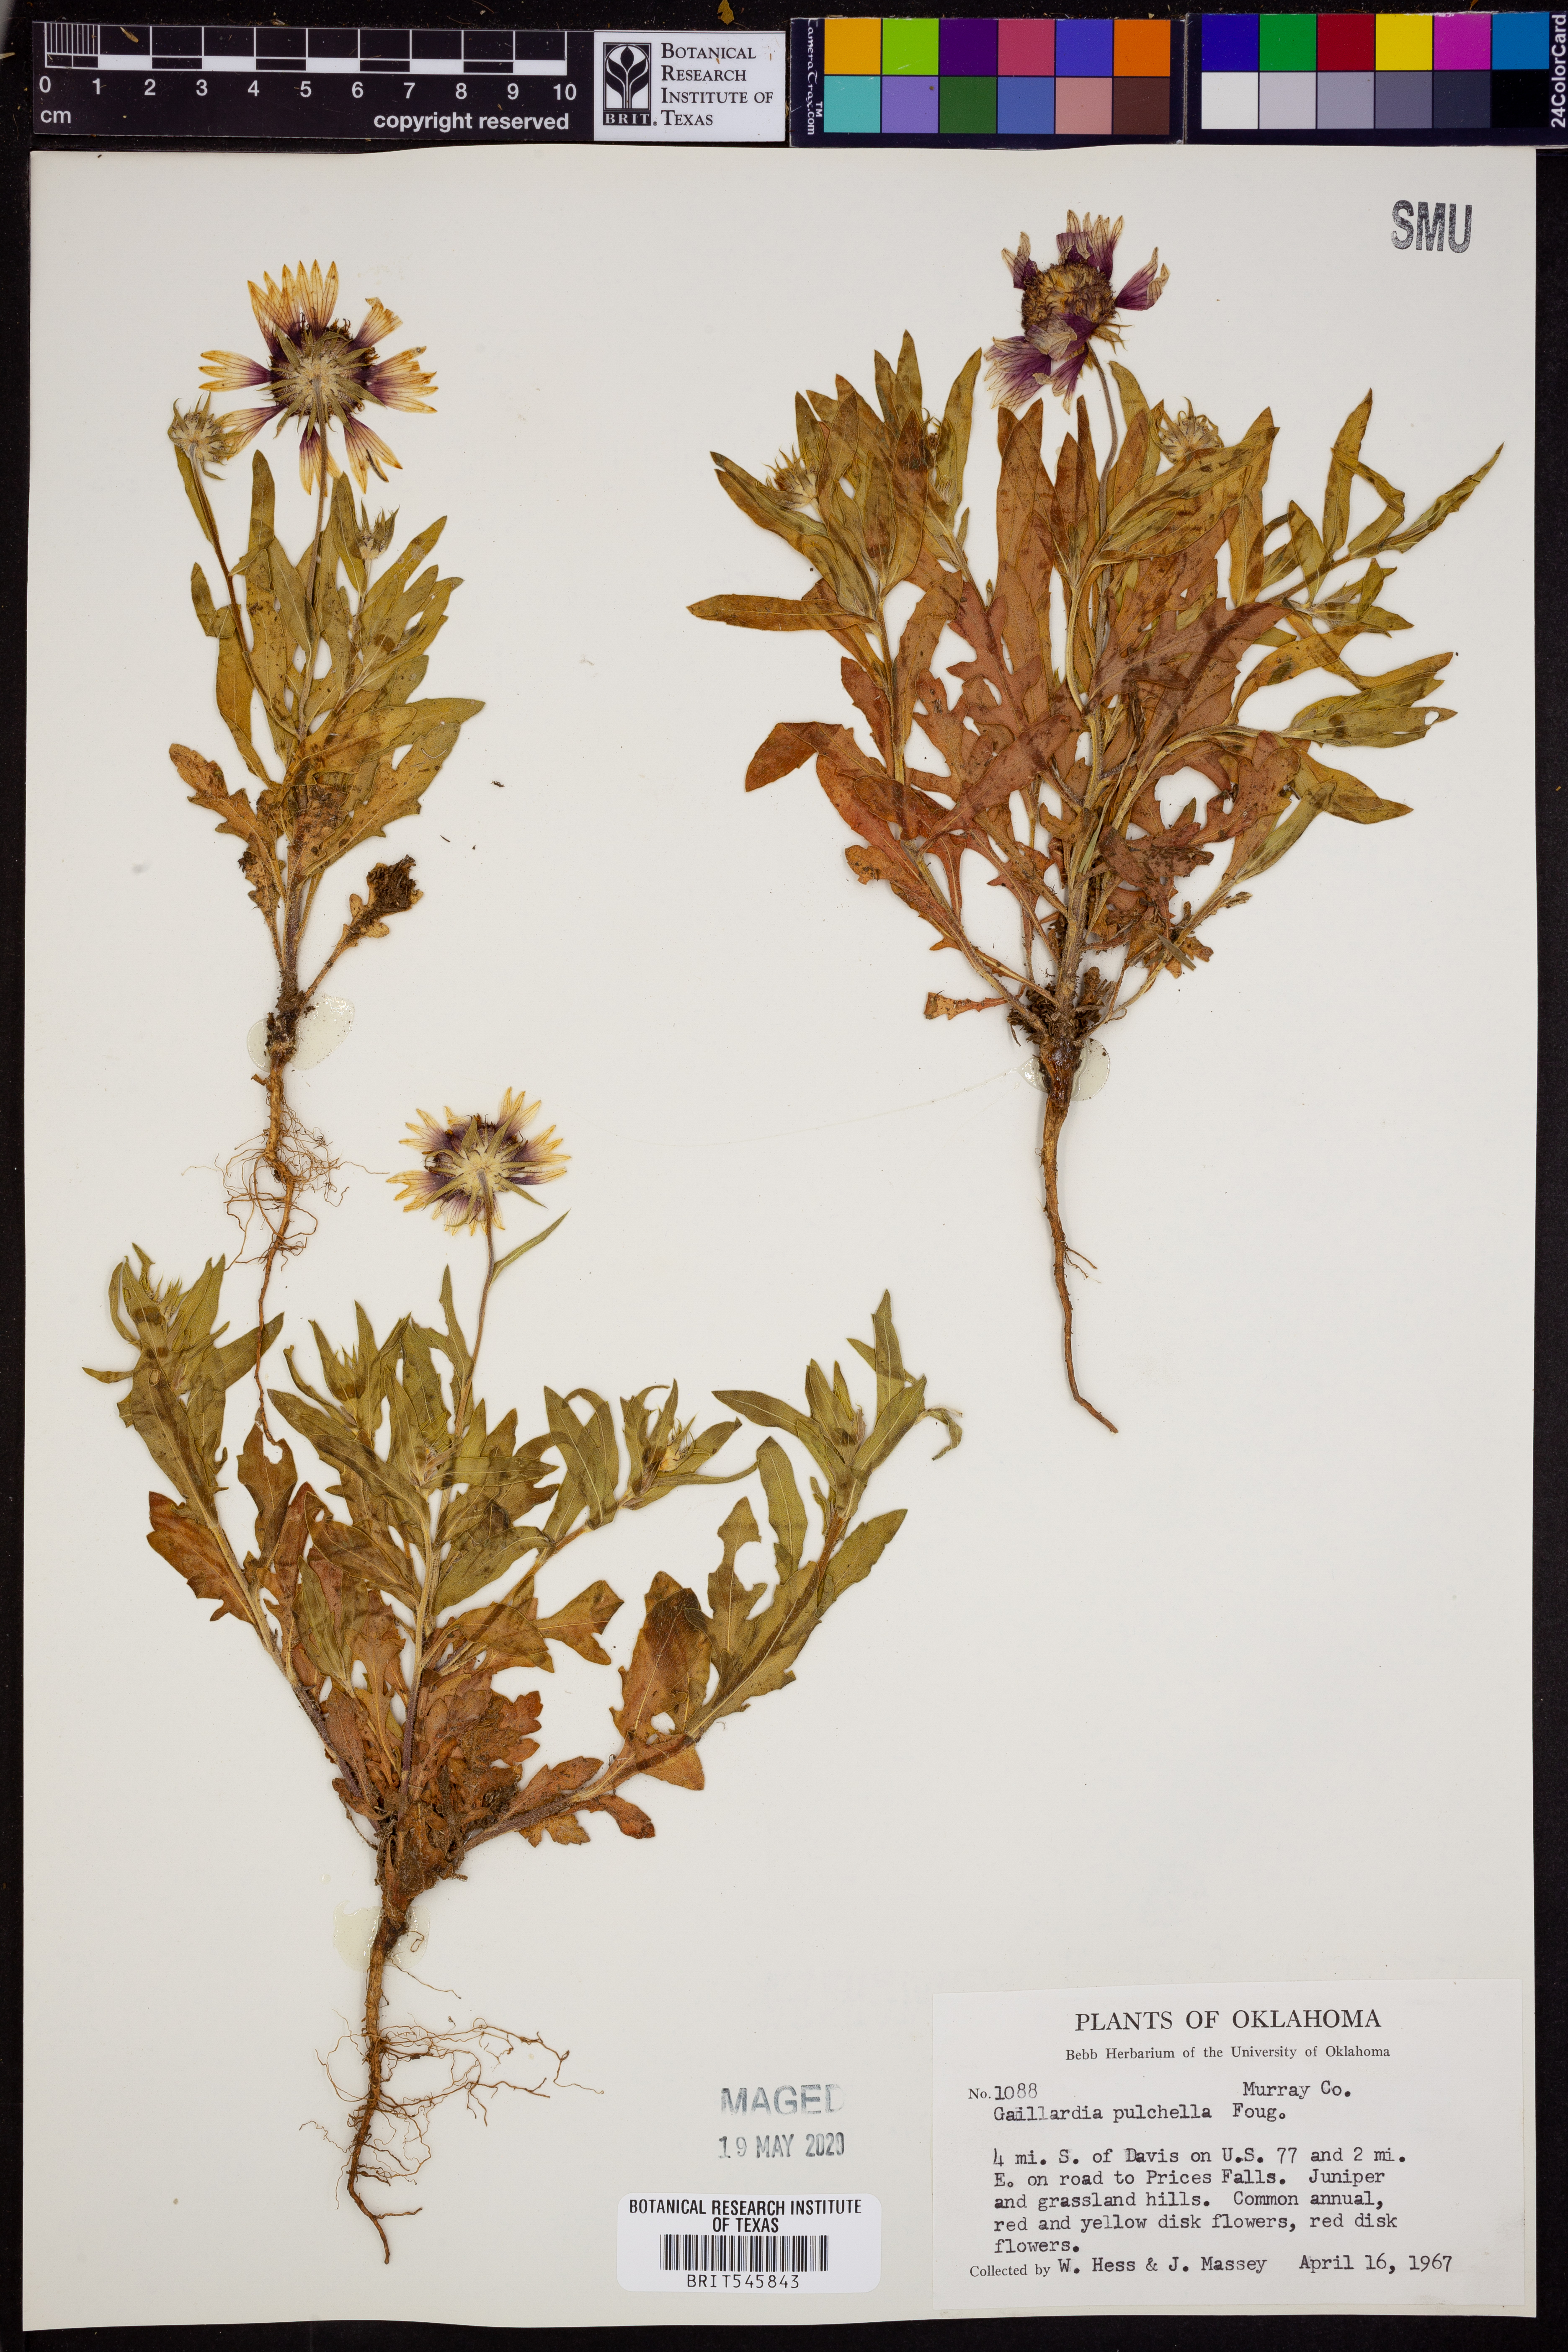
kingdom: Plantae
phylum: Tracheophyta
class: Magnoliopsida
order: Asterales
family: Asteraceae
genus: Gaillardia
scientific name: Gaillardia pulchella
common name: Firewheel
